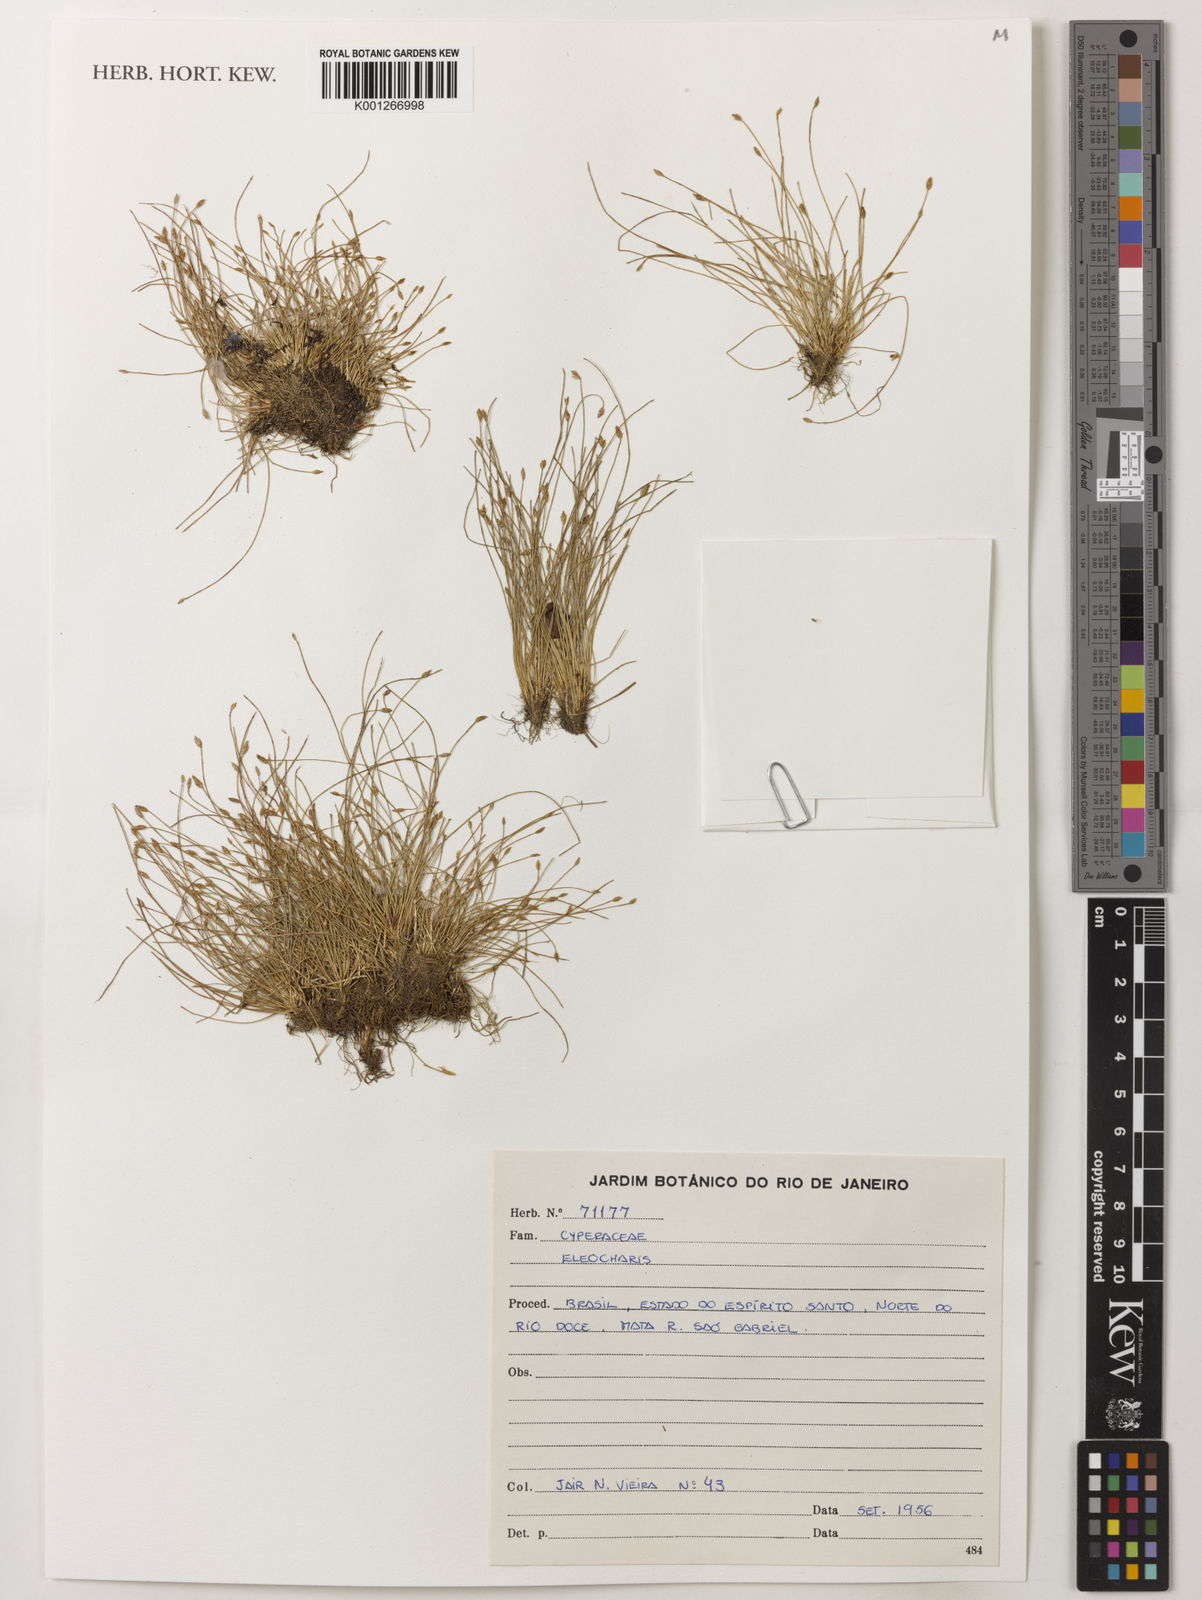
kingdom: Plantae
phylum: Tracheophyta
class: Liliopsida
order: Poales
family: Cyperaceae
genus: Eleocharis
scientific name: Eleocharis
